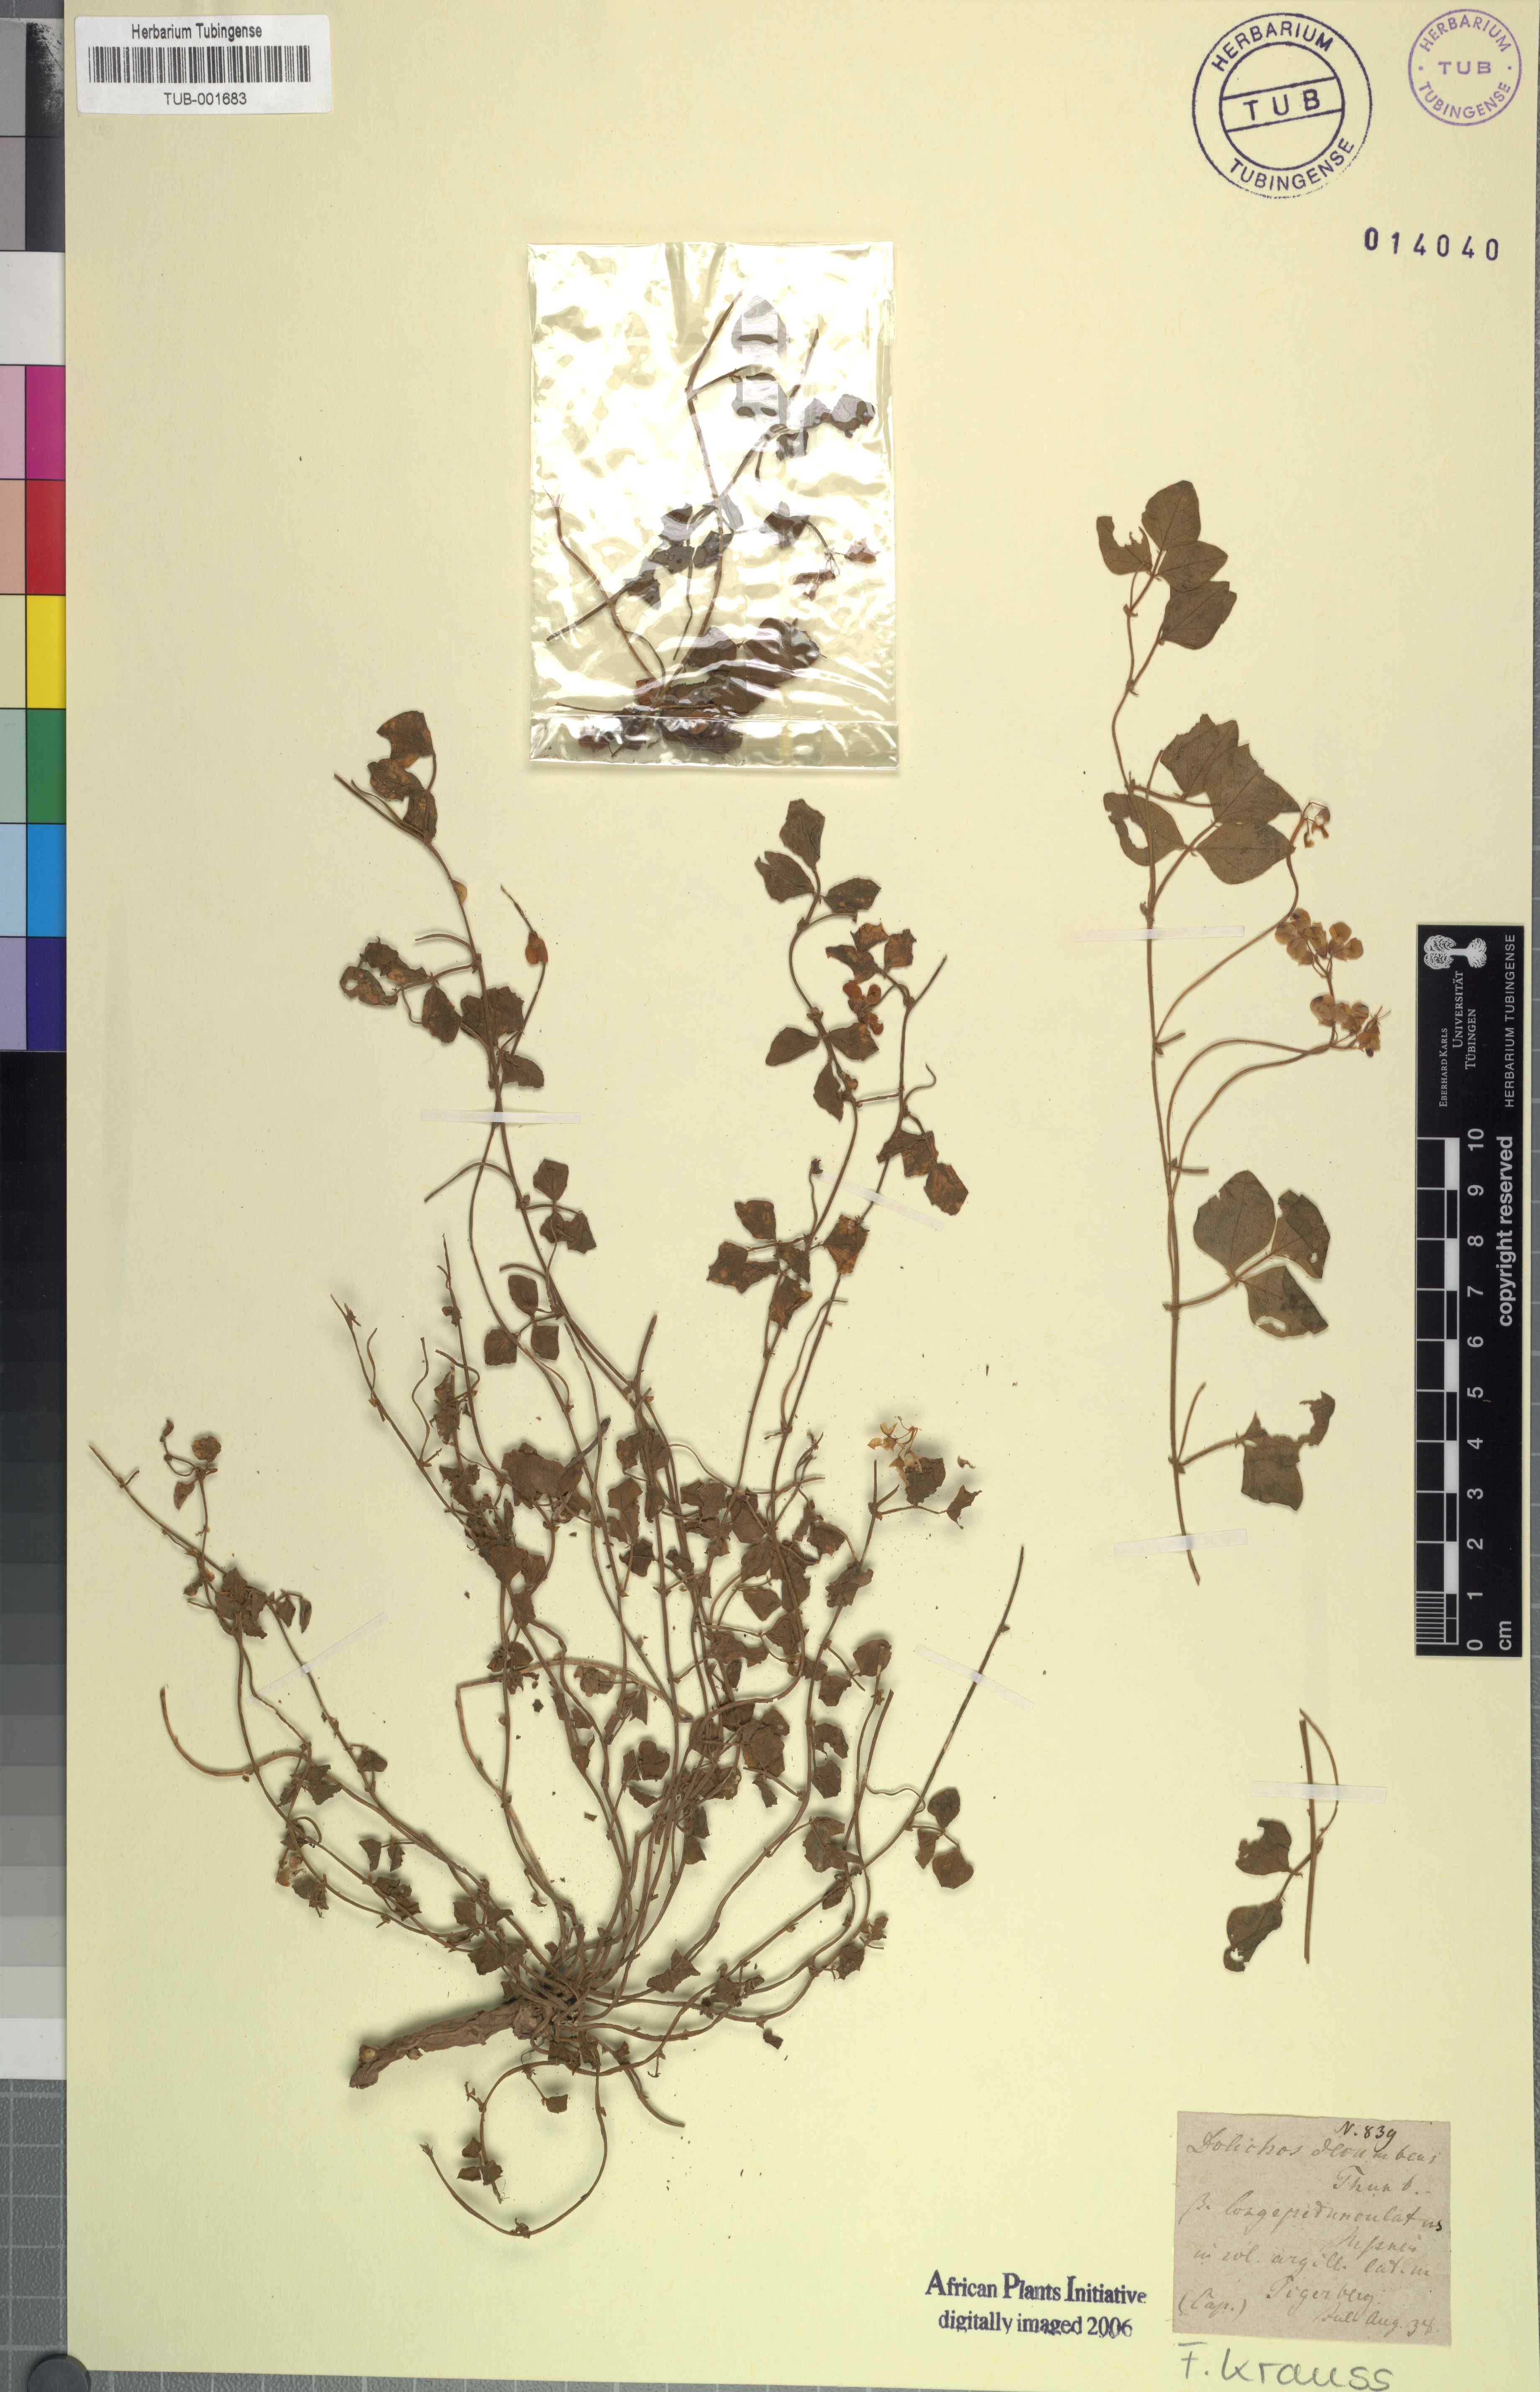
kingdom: Plantae
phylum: Tracheophyta
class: Magnoliopsida
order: Fabales
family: Fabaceae
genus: Dolichos
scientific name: Dolichos decumbens
